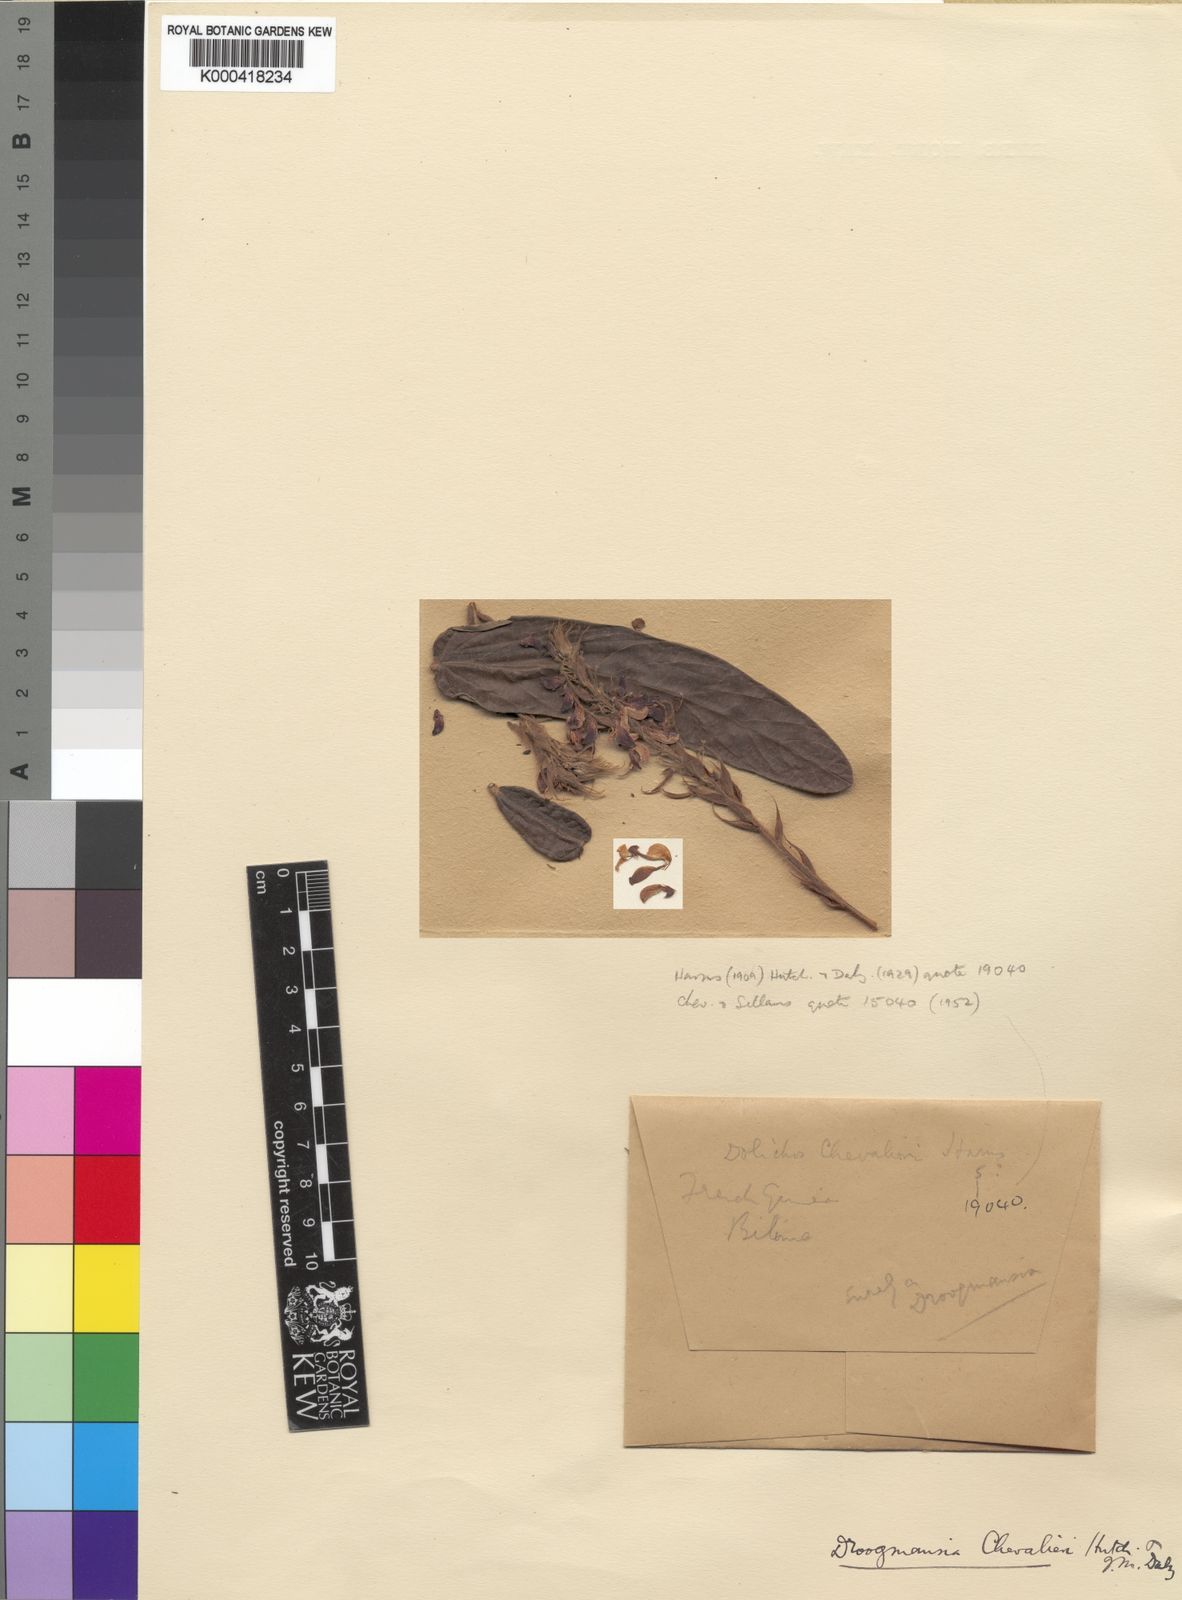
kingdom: Plantae
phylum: Tracheophyta
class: Magnoliopsida
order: Fabales
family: Fabaceae
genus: Droogmansia
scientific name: Droogmansia chevalieri
